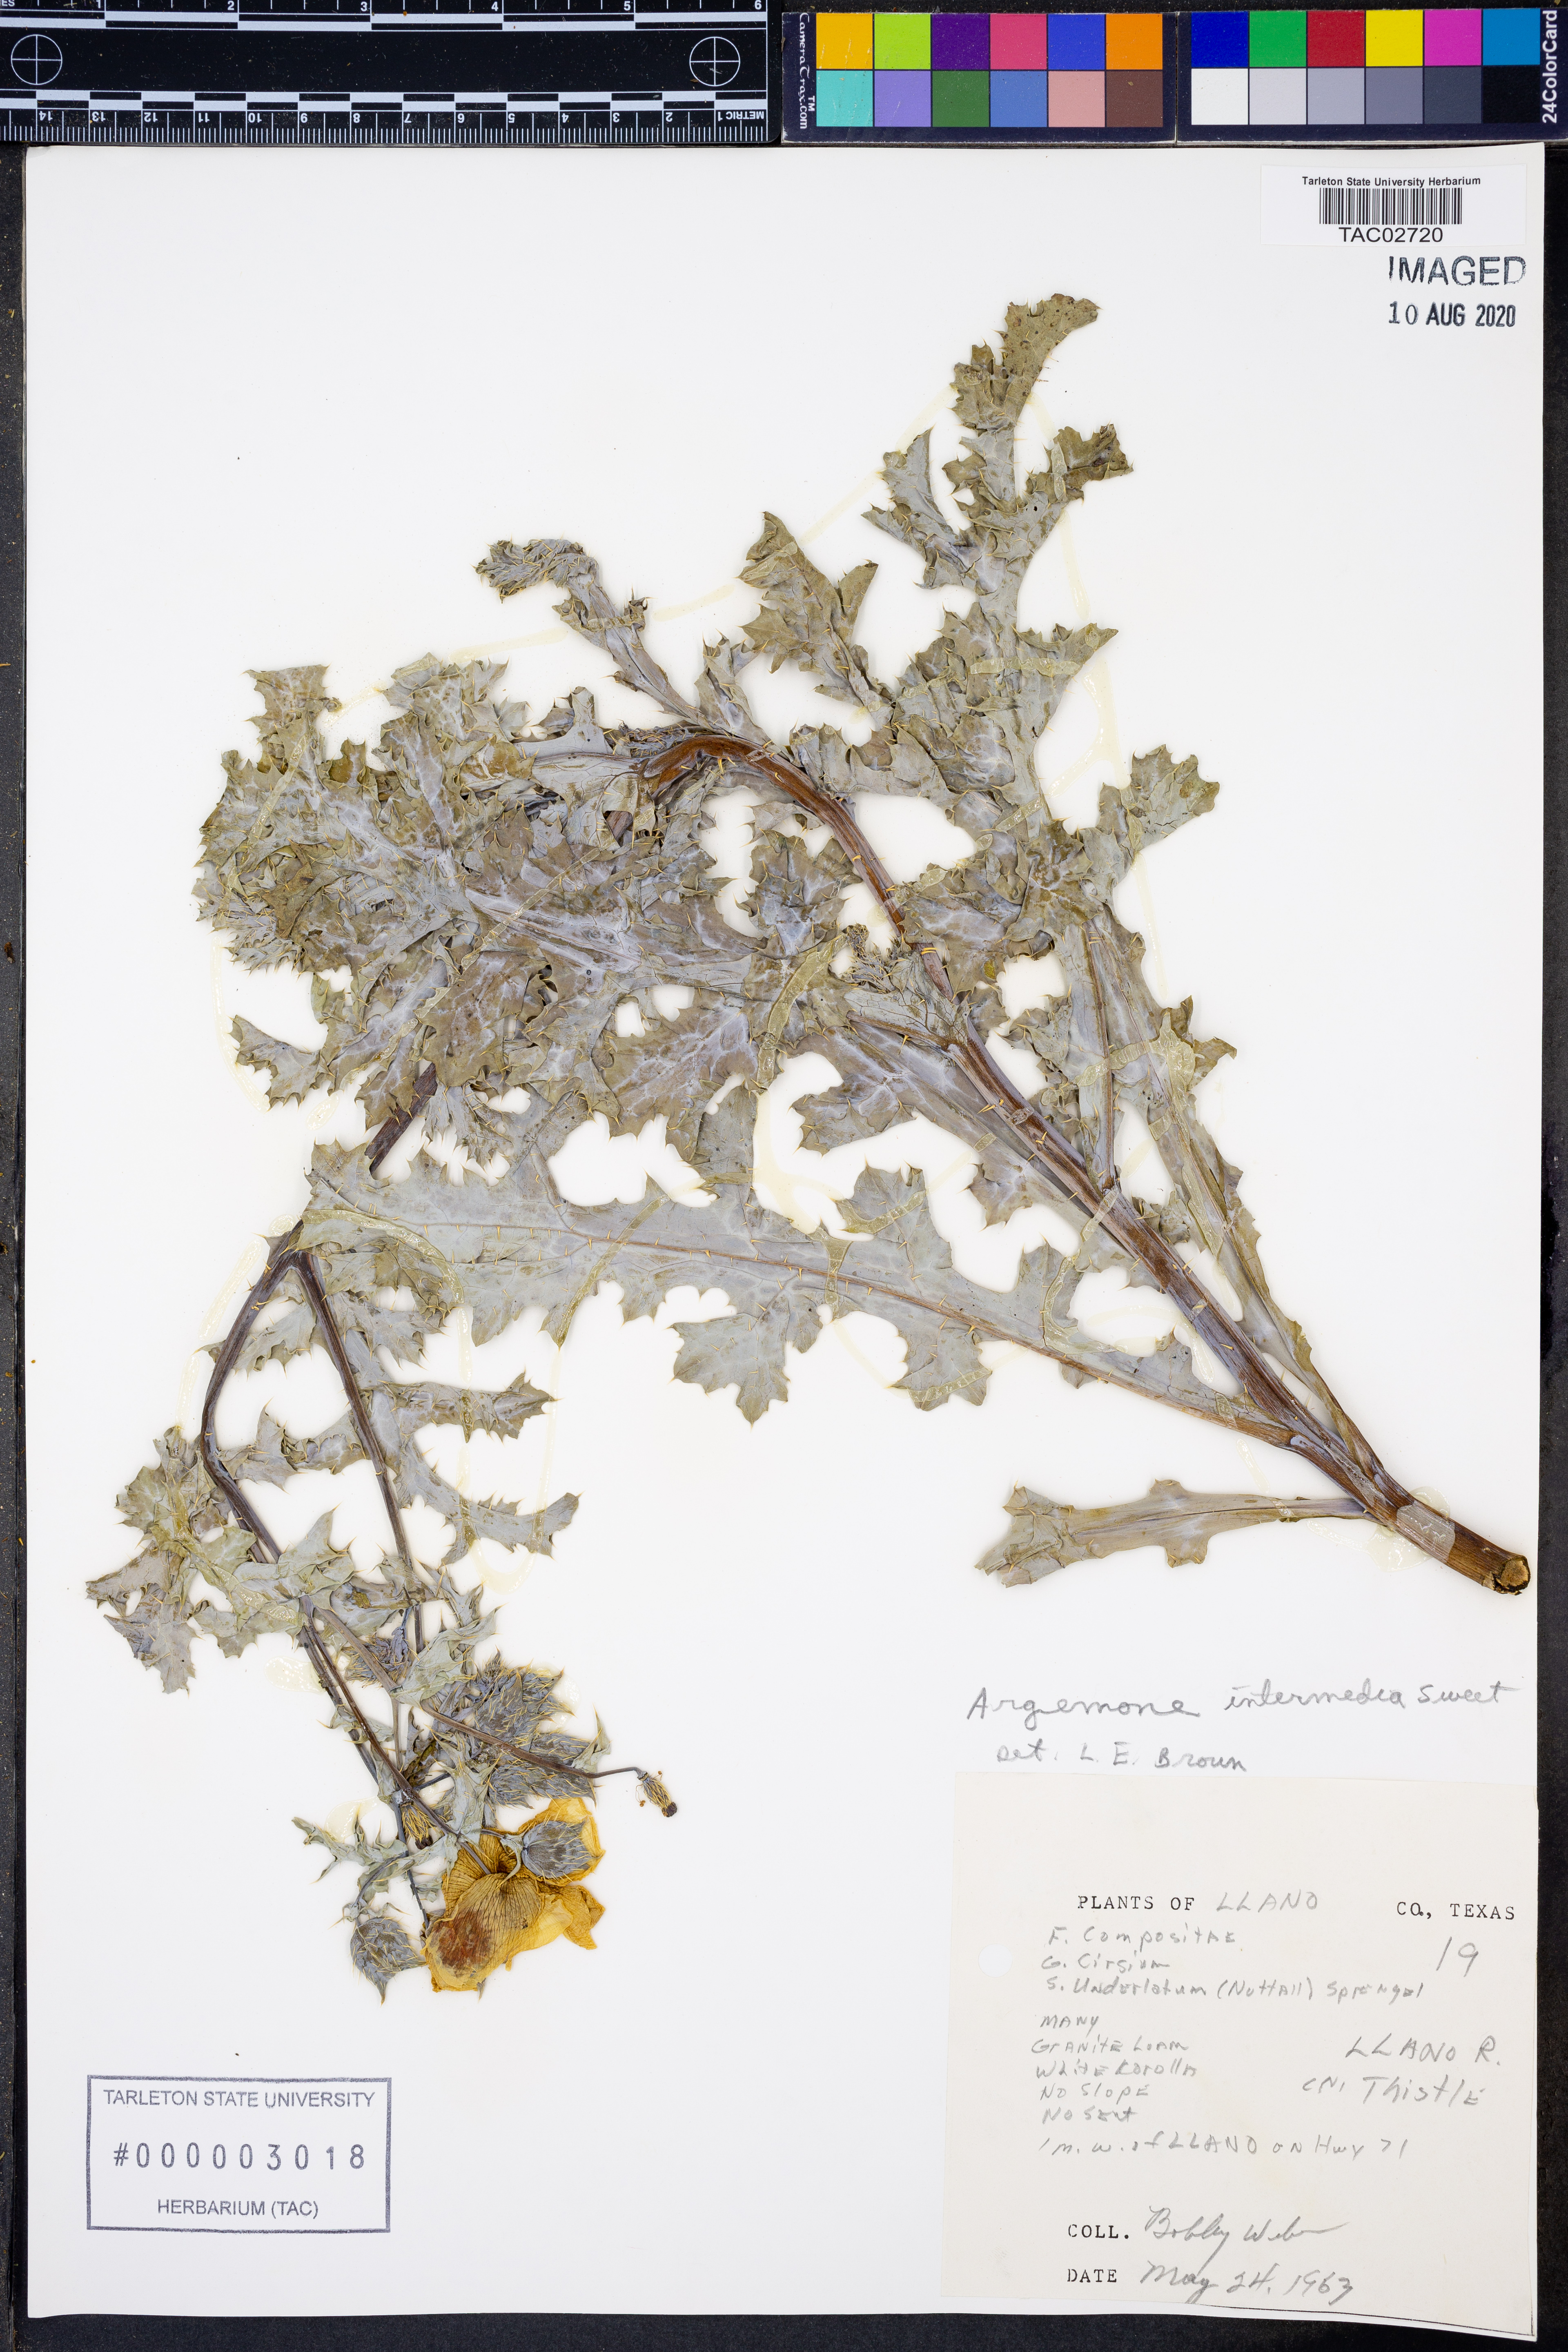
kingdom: Plantae
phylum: Tracheophyta
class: Magnoliopsida
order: Ranunculales
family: Papaveraceae
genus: Argemone
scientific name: Argemone intermedia
